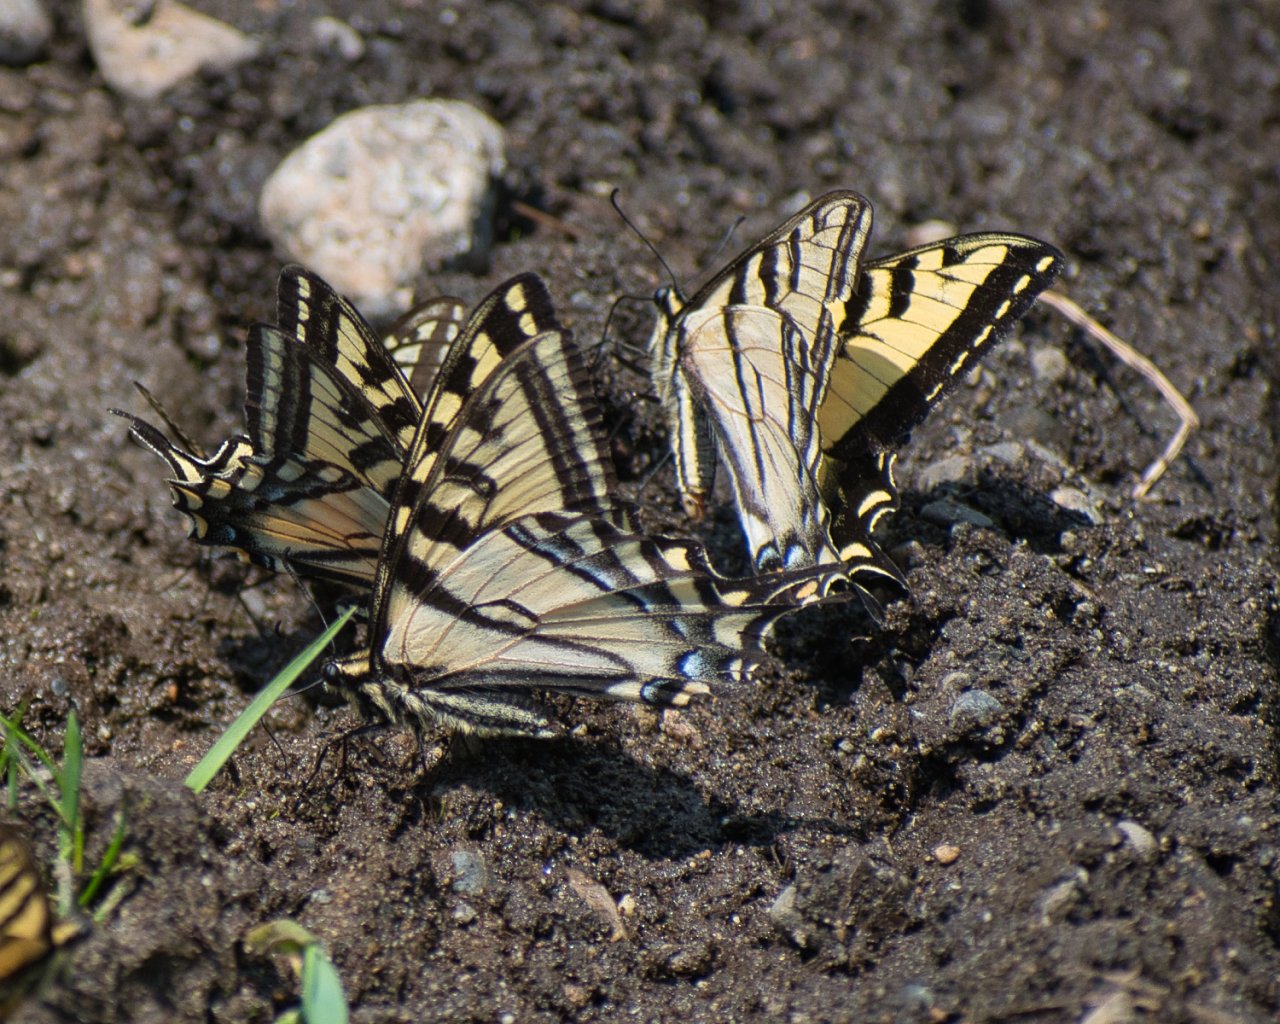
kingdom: Animalia
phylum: Arthropoda
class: Insecta
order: Lepidoptera
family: Papilionidae
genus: Pterourus
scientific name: Pterourus rutulus
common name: Western Tiger Swallowtail
